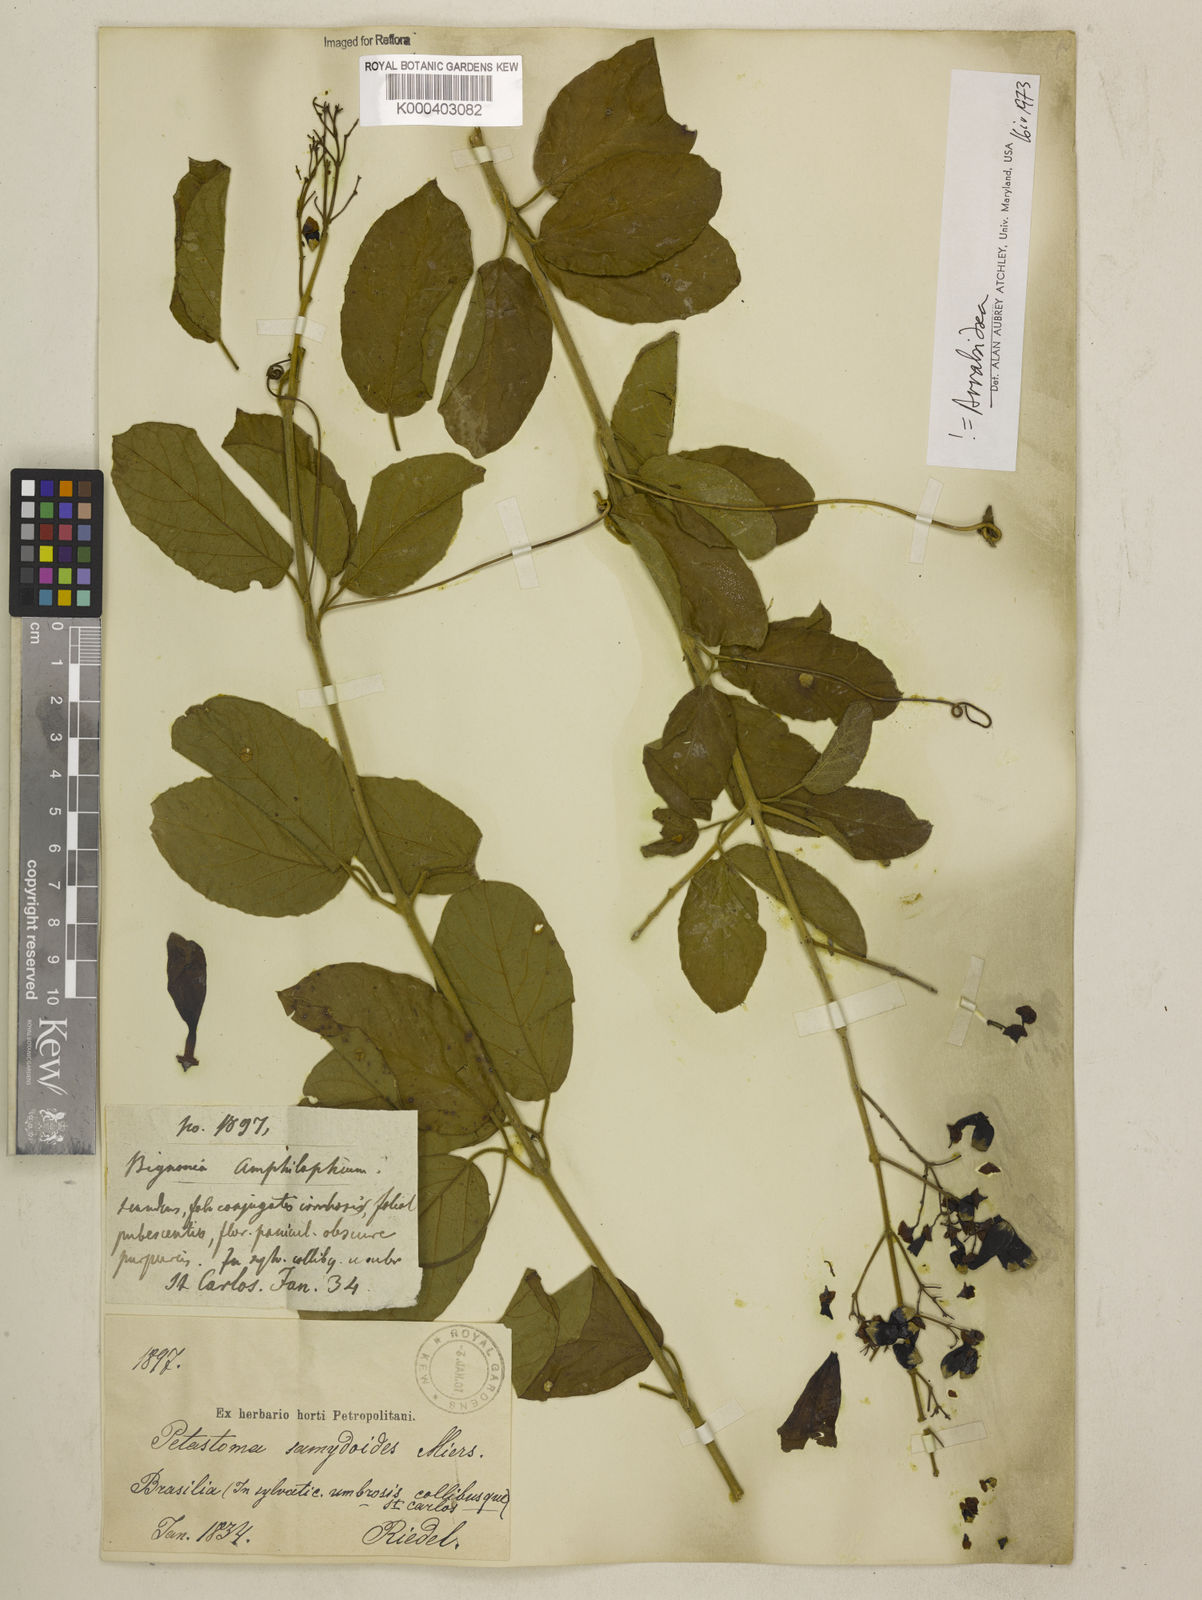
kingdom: Plantae
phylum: Tracheophyta
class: Magnoliopsida
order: Lamiales
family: Bignoniaceae
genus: Fridericia
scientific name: Fridericia samydoides
